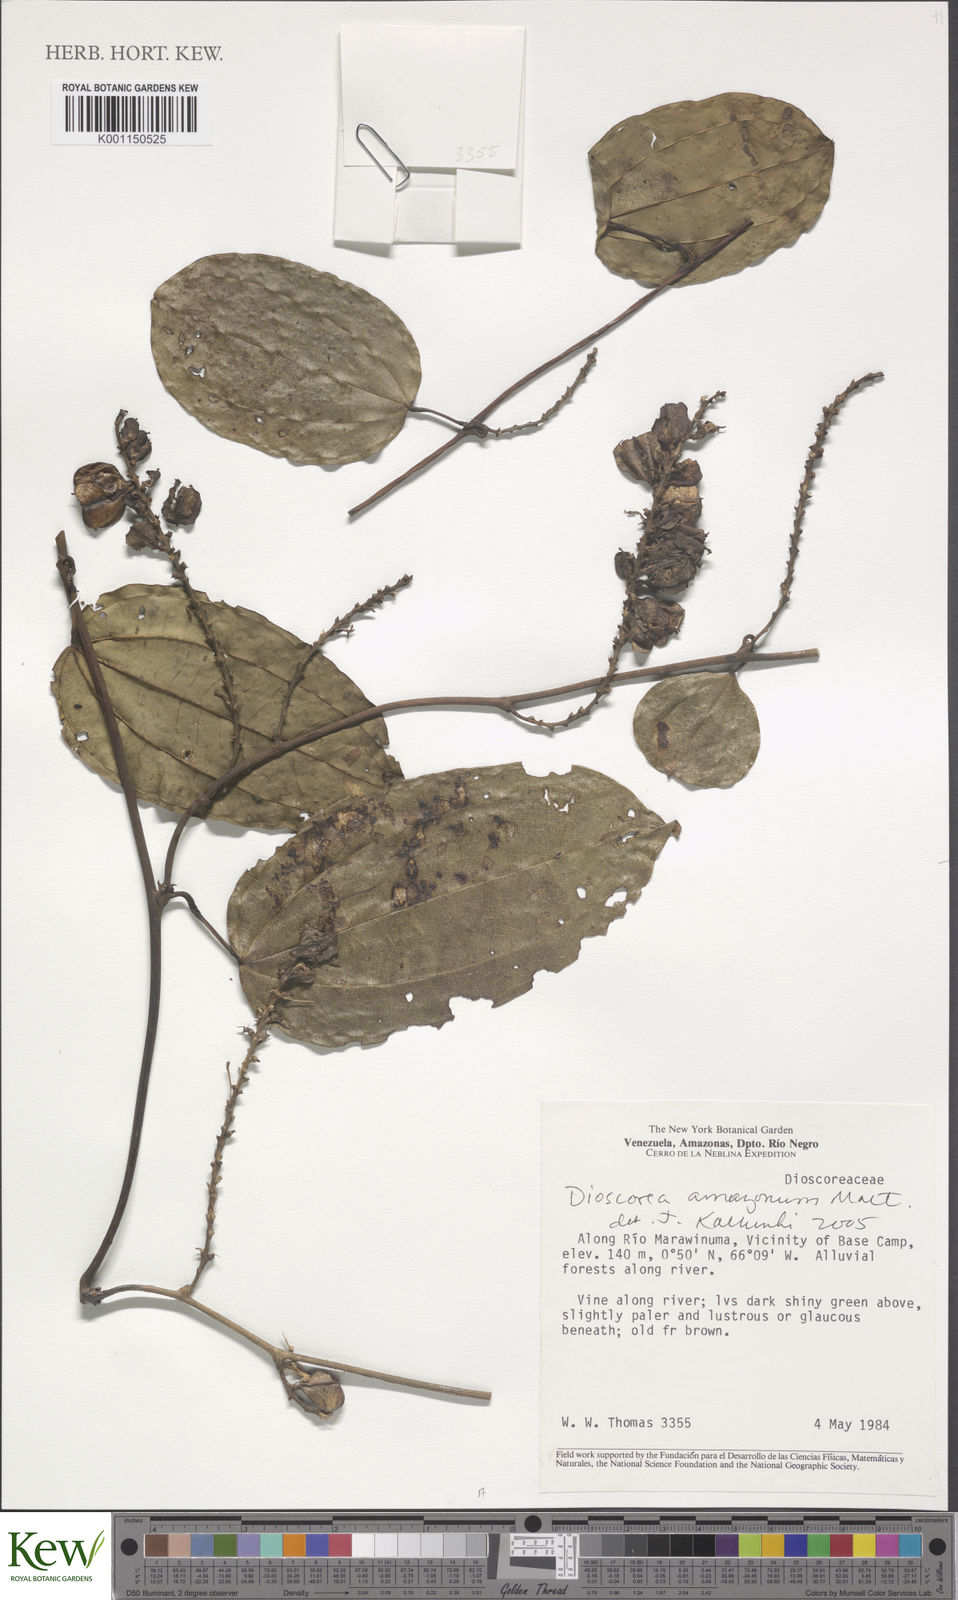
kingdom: Plantae
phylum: Tracheophyta
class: Liliopsida
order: Dioscoreales
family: Dioscoreaceae
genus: Dioscorea
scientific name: Dioscorea amazonum
